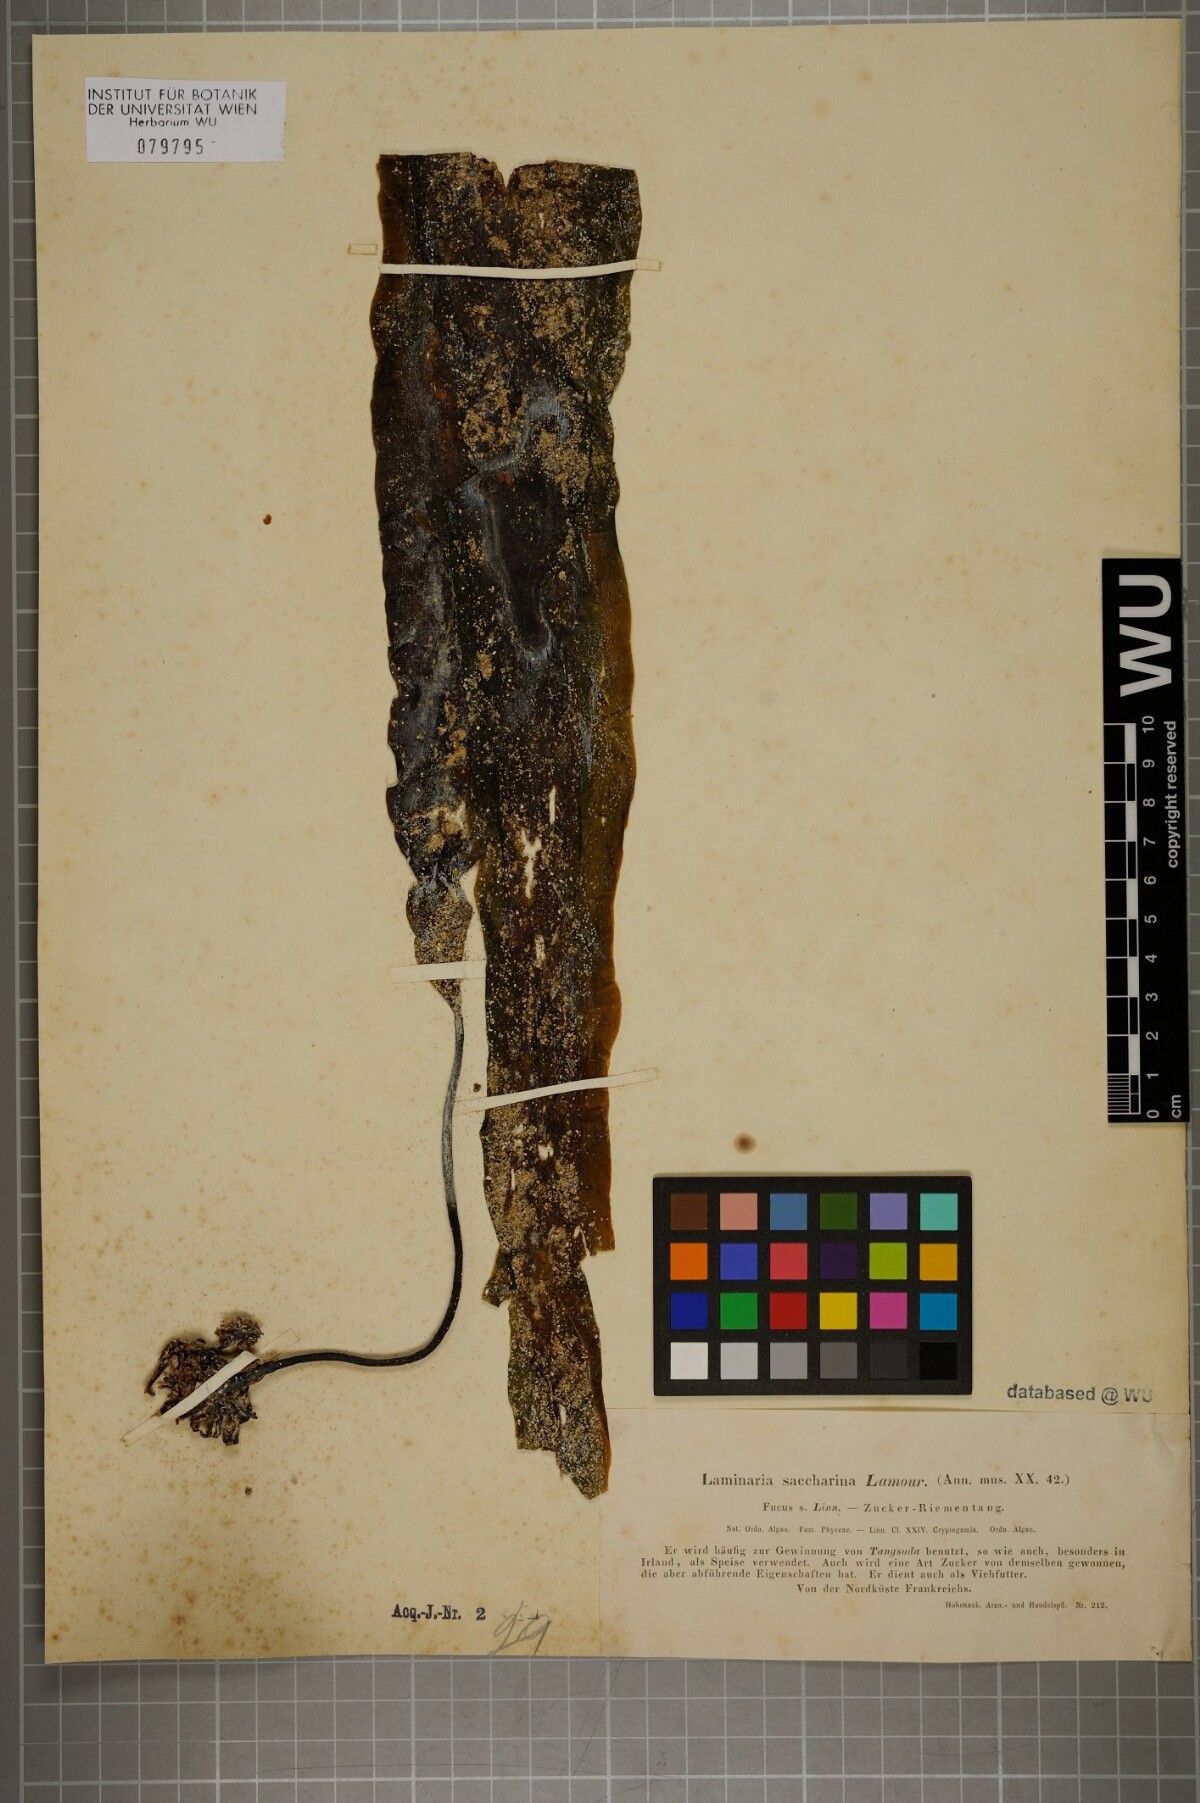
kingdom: Chromista
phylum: Ochrophyta
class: Phaeophyceae
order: Laminariales
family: Laminariaceae
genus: Saccharina
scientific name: Saccharina latissima
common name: Poor man's weather glass
